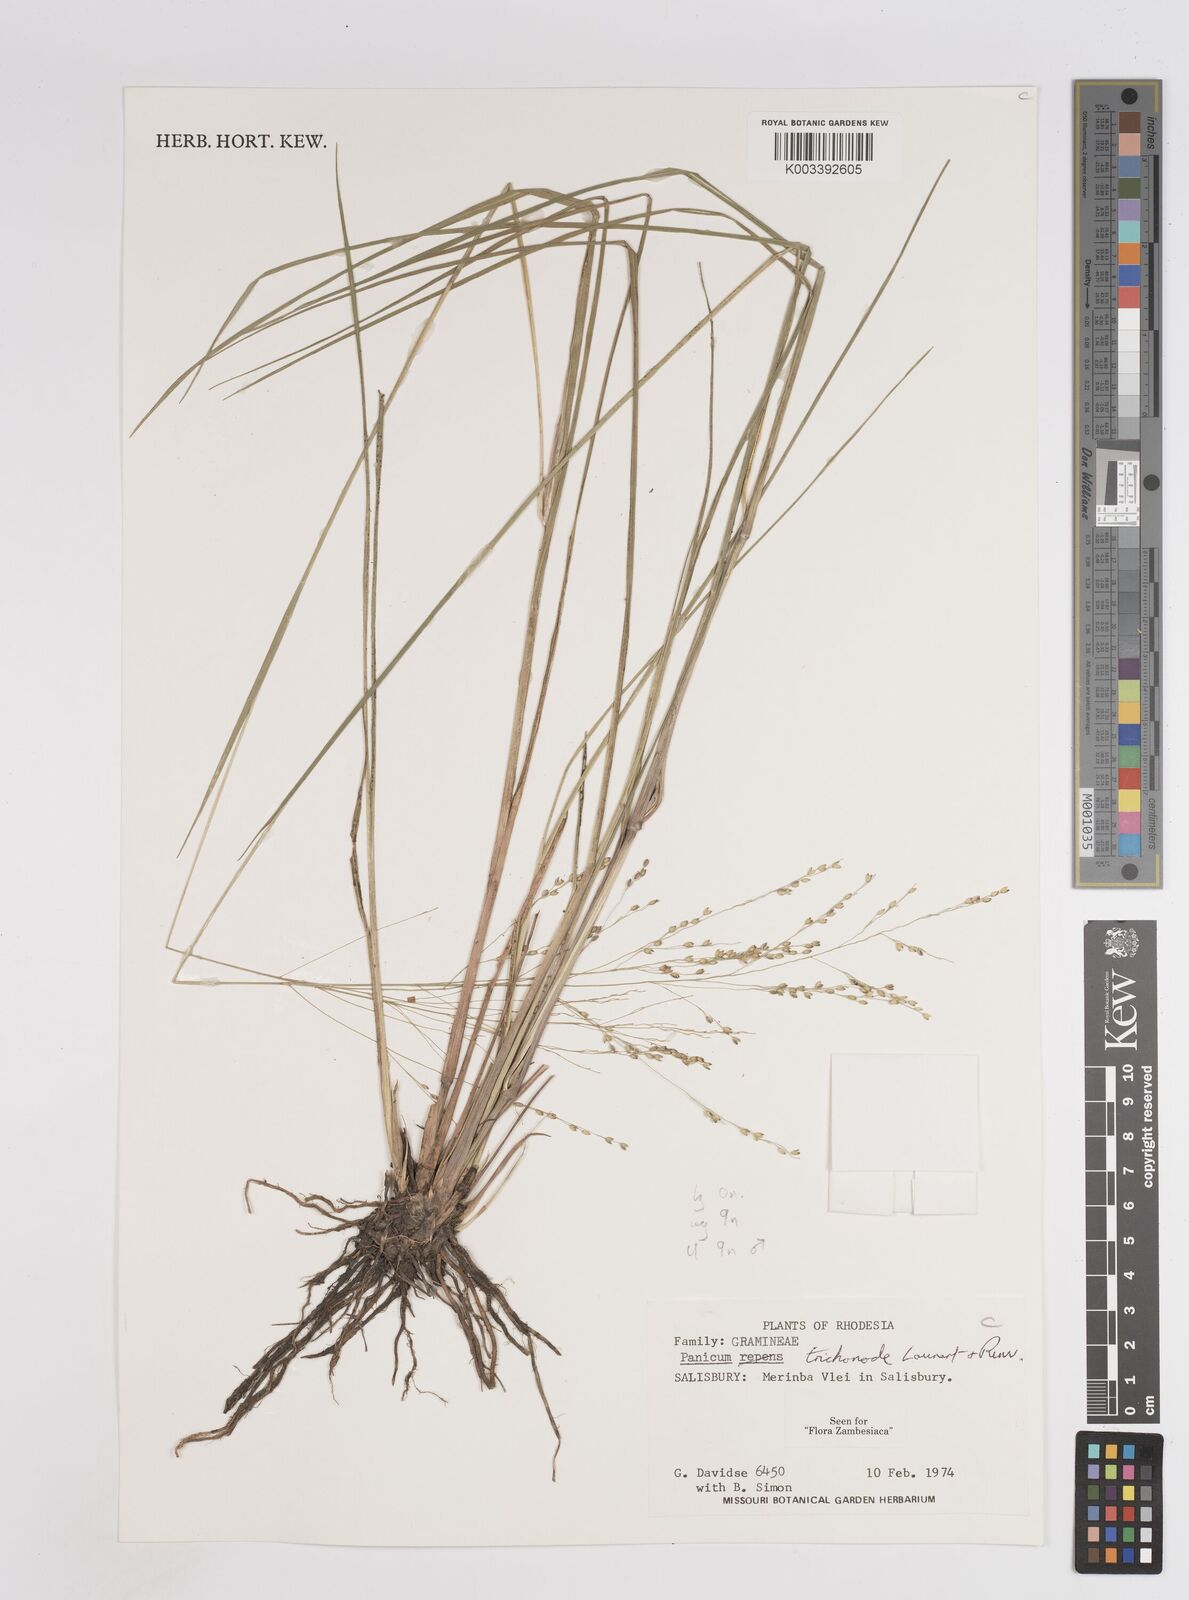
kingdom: Plantae
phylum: Tracheophyta
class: Liliopsida
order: Poales
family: Poaceae
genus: Panicum
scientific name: Panicum trichonode
